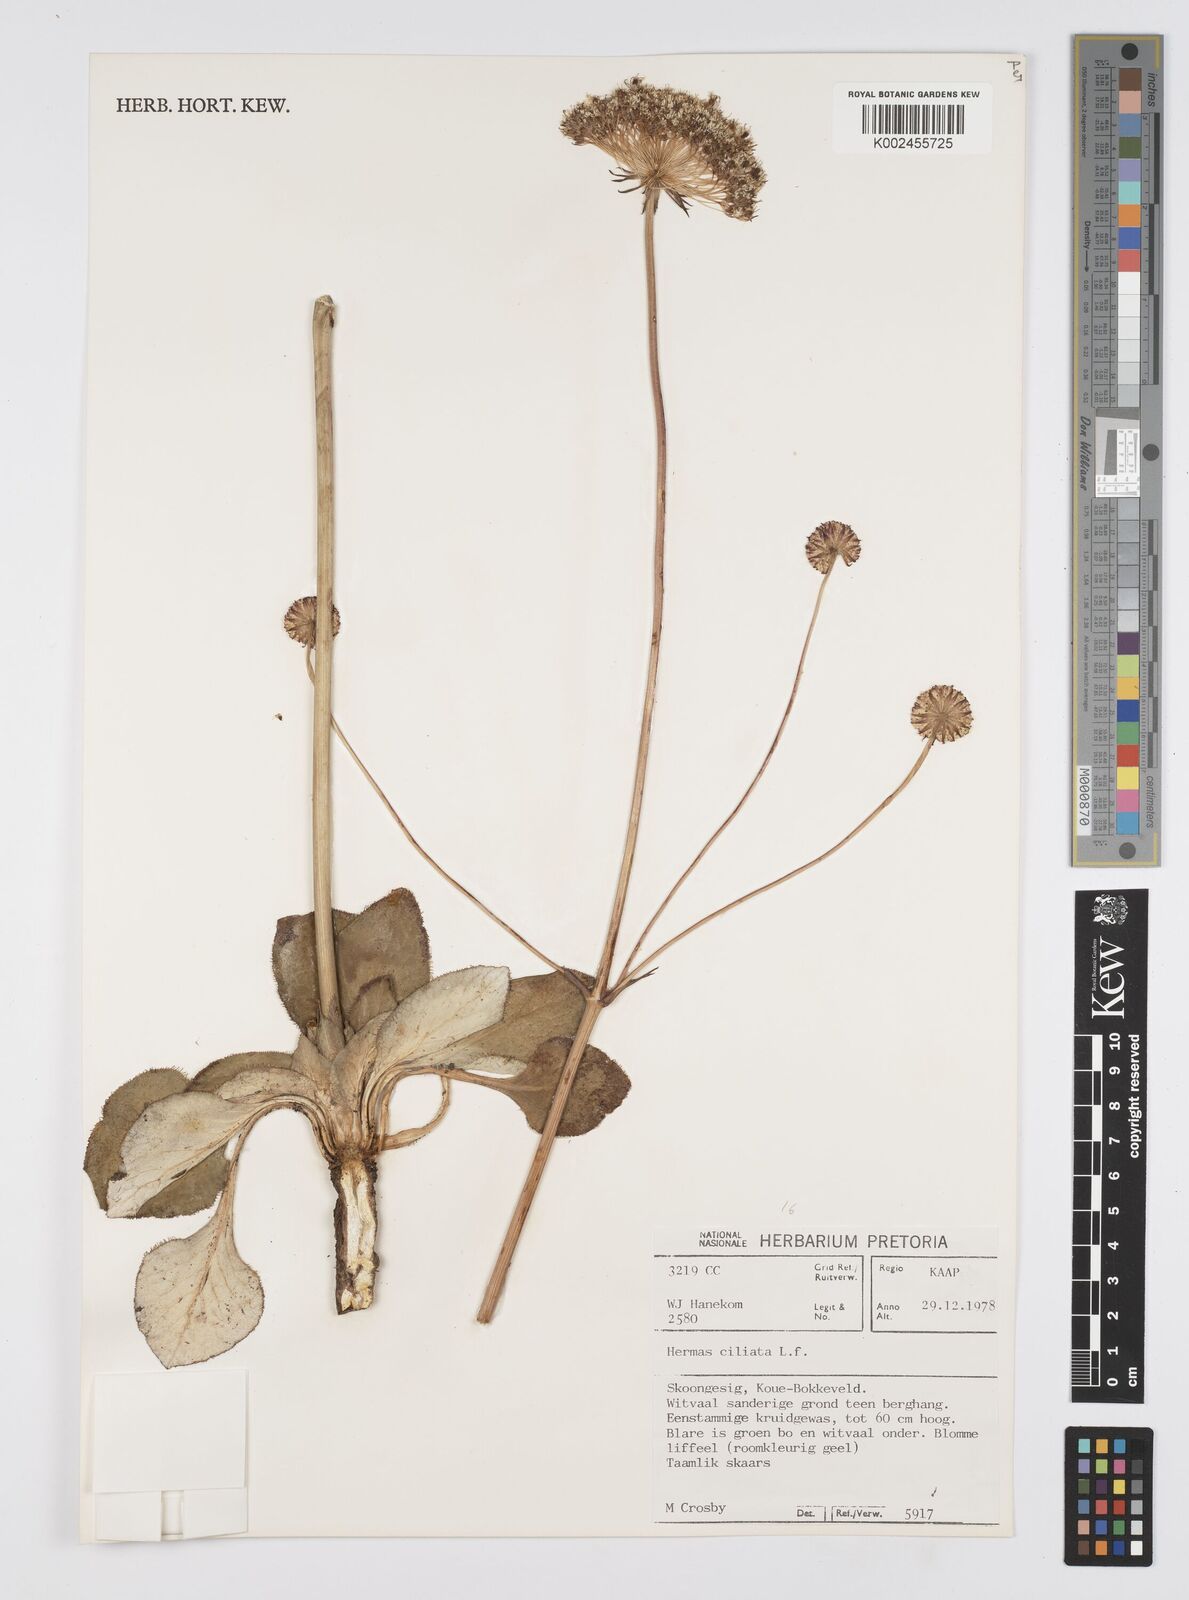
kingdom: Plantae
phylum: Tracheophyta
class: Magnoliopsida
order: Apiales
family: Apiaceae
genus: Hermas
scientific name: Hermas ciliata
